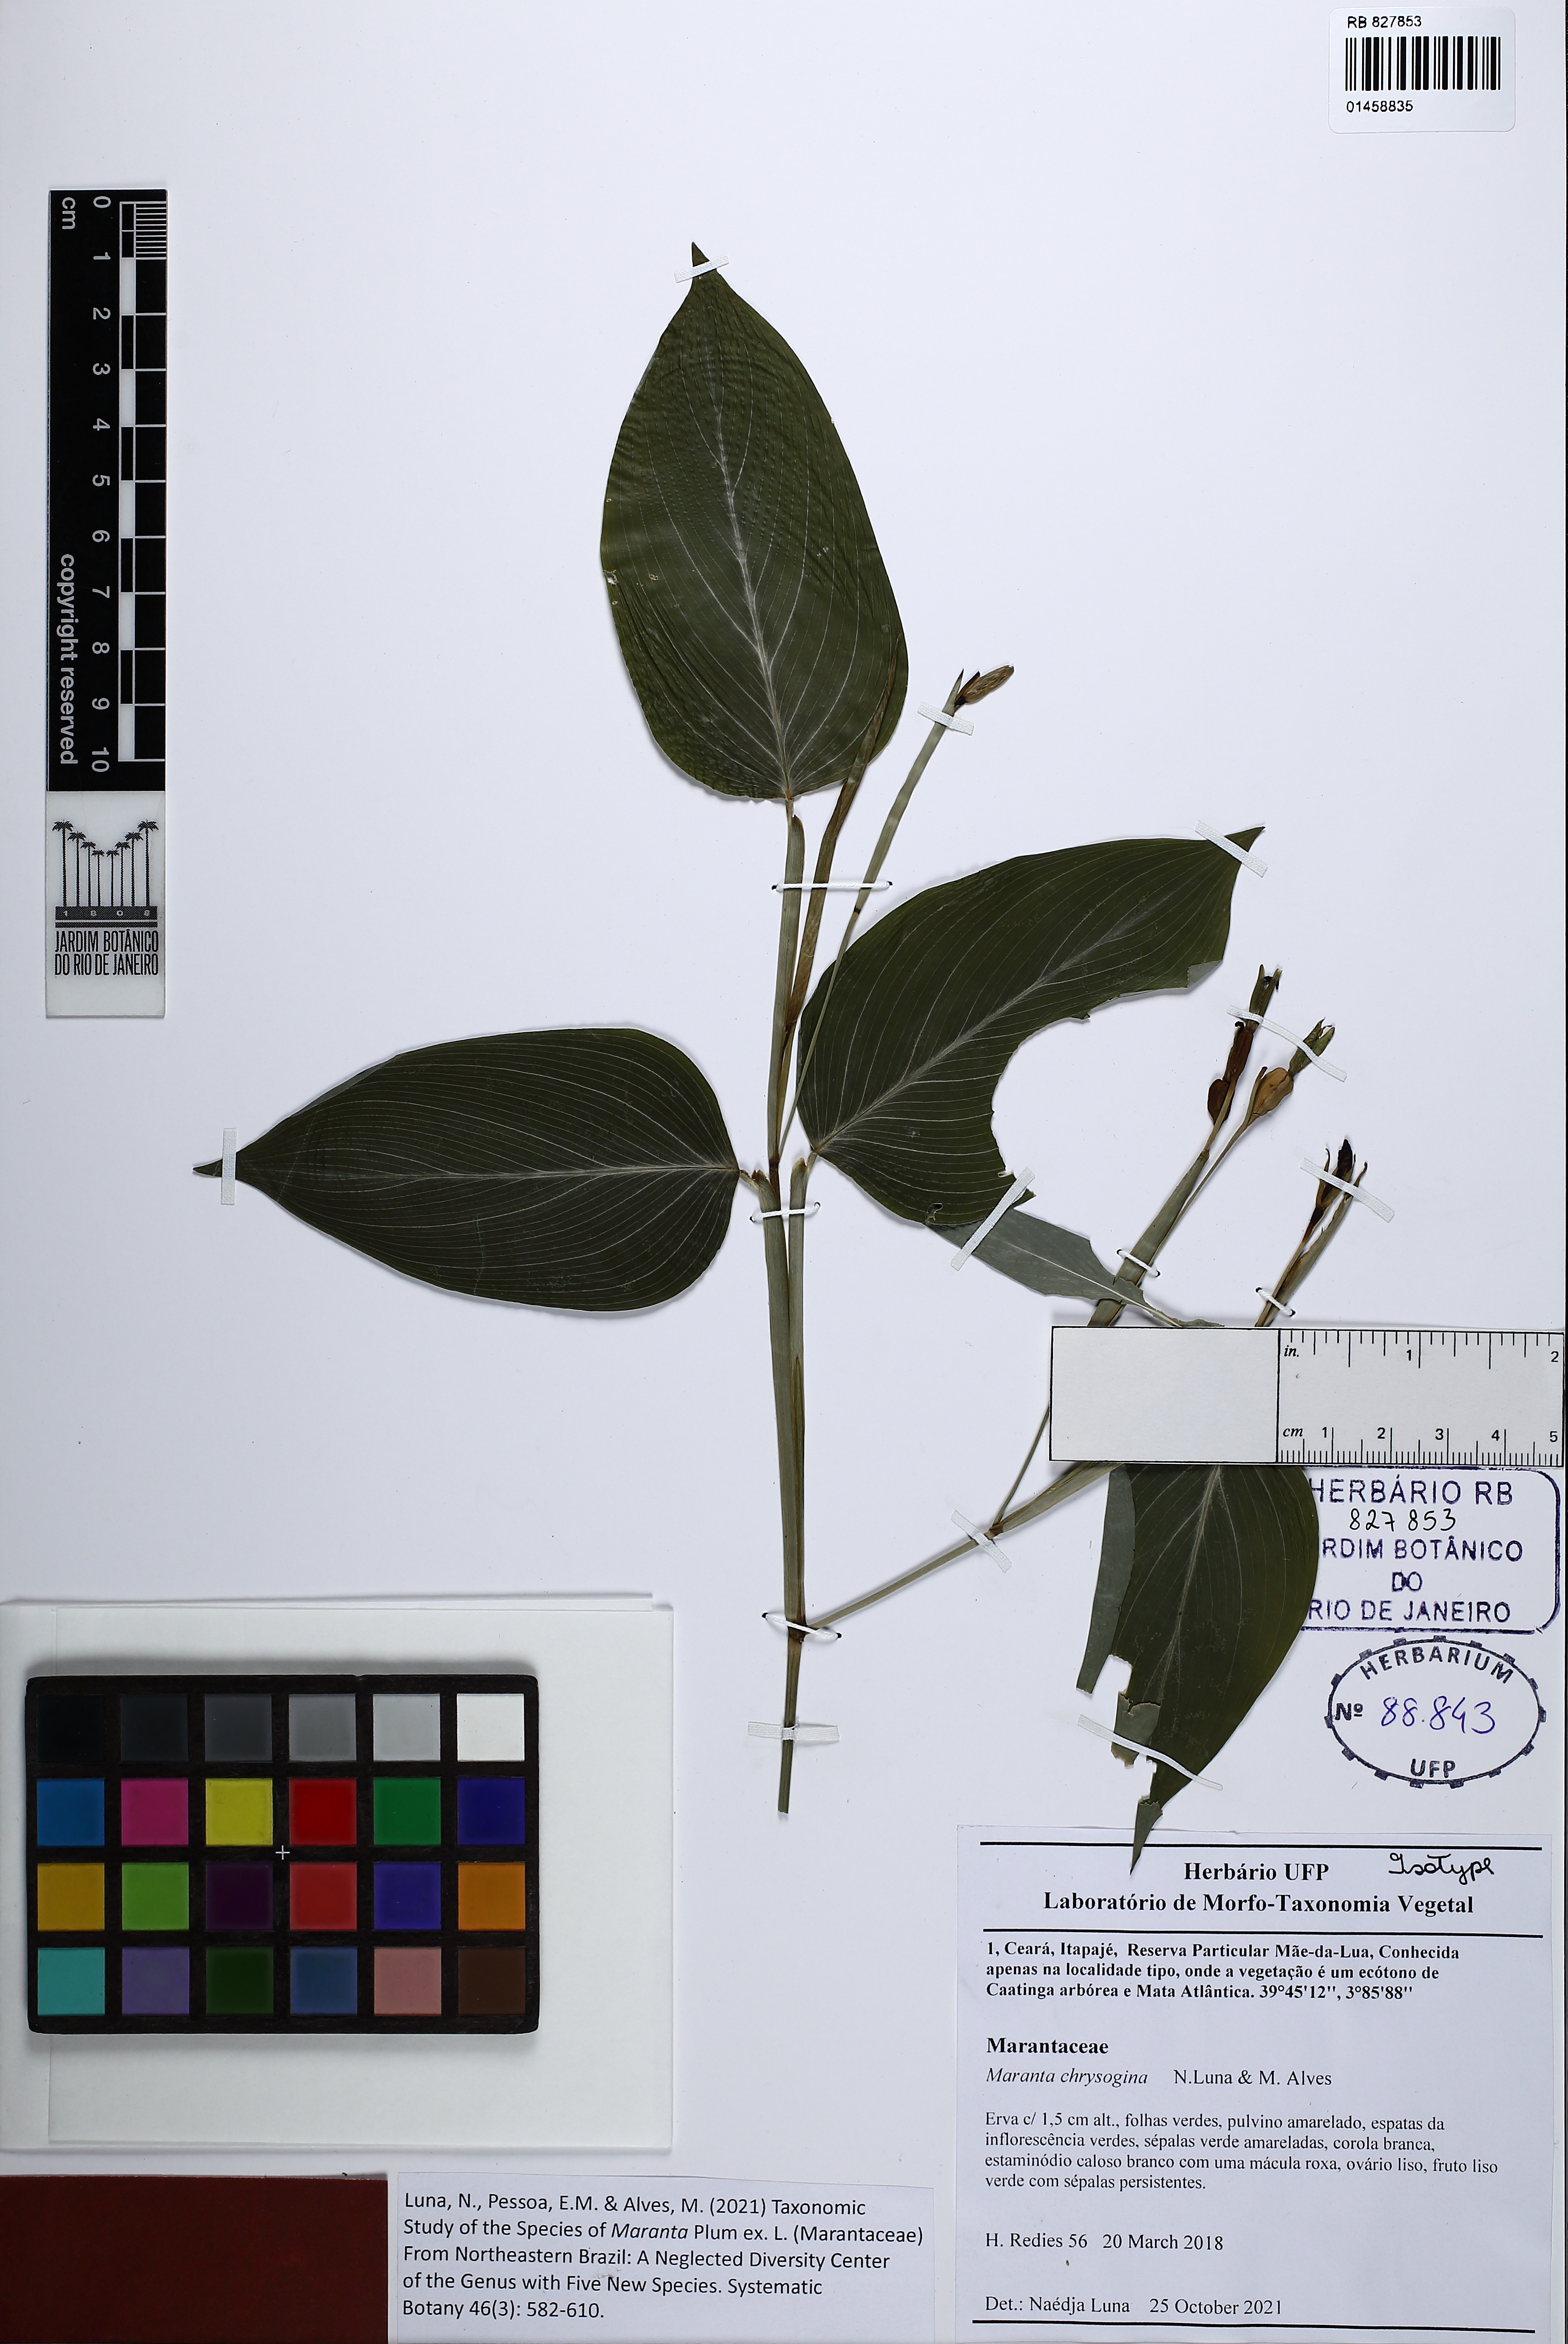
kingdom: Plantae
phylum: Tracheophyta
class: Liliopsida
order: Zingiberales
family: Marantaceae
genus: Maranta
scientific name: Maranta chrysogina
